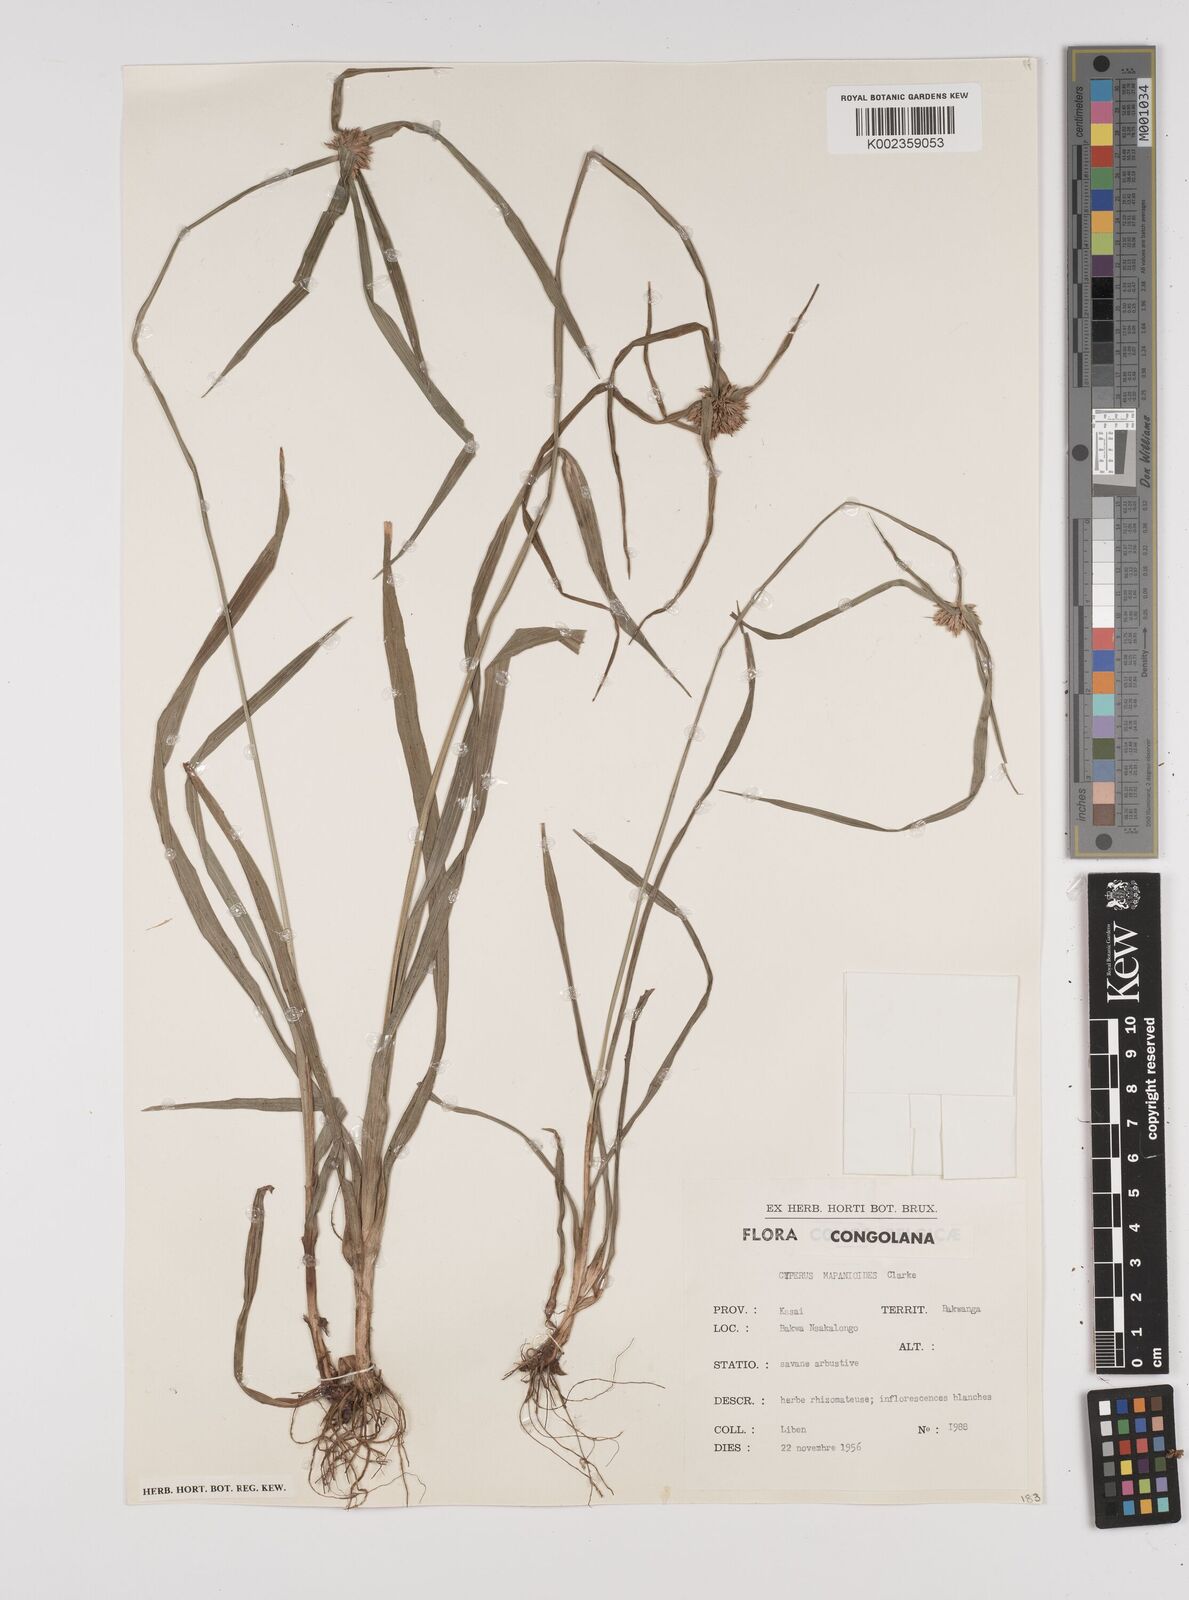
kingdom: Plantae
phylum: Tracheophyta
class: Liliopsida
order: Poales
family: Cyperaceae
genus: Cyperus
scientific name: Cyperus mapanioides
